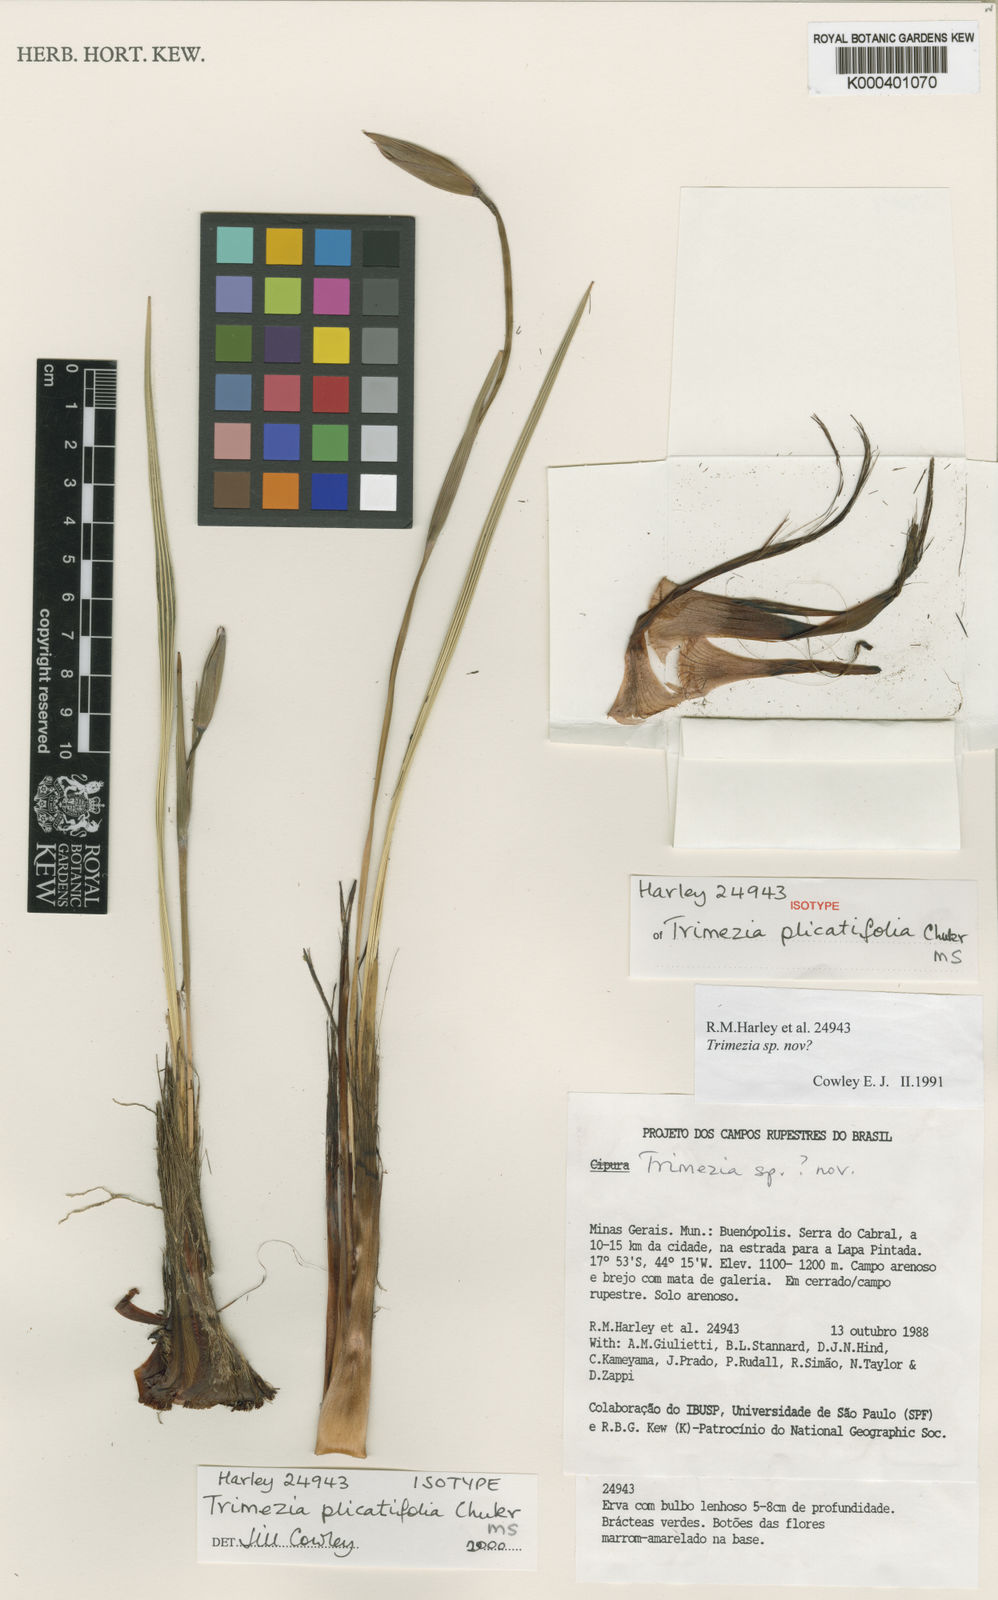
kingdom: Plantae
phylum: Tracheophyta
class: Liliopsida
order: Asparagales
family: Iridaceae
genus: Trimezia
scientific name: Trimezia plicatifolia
